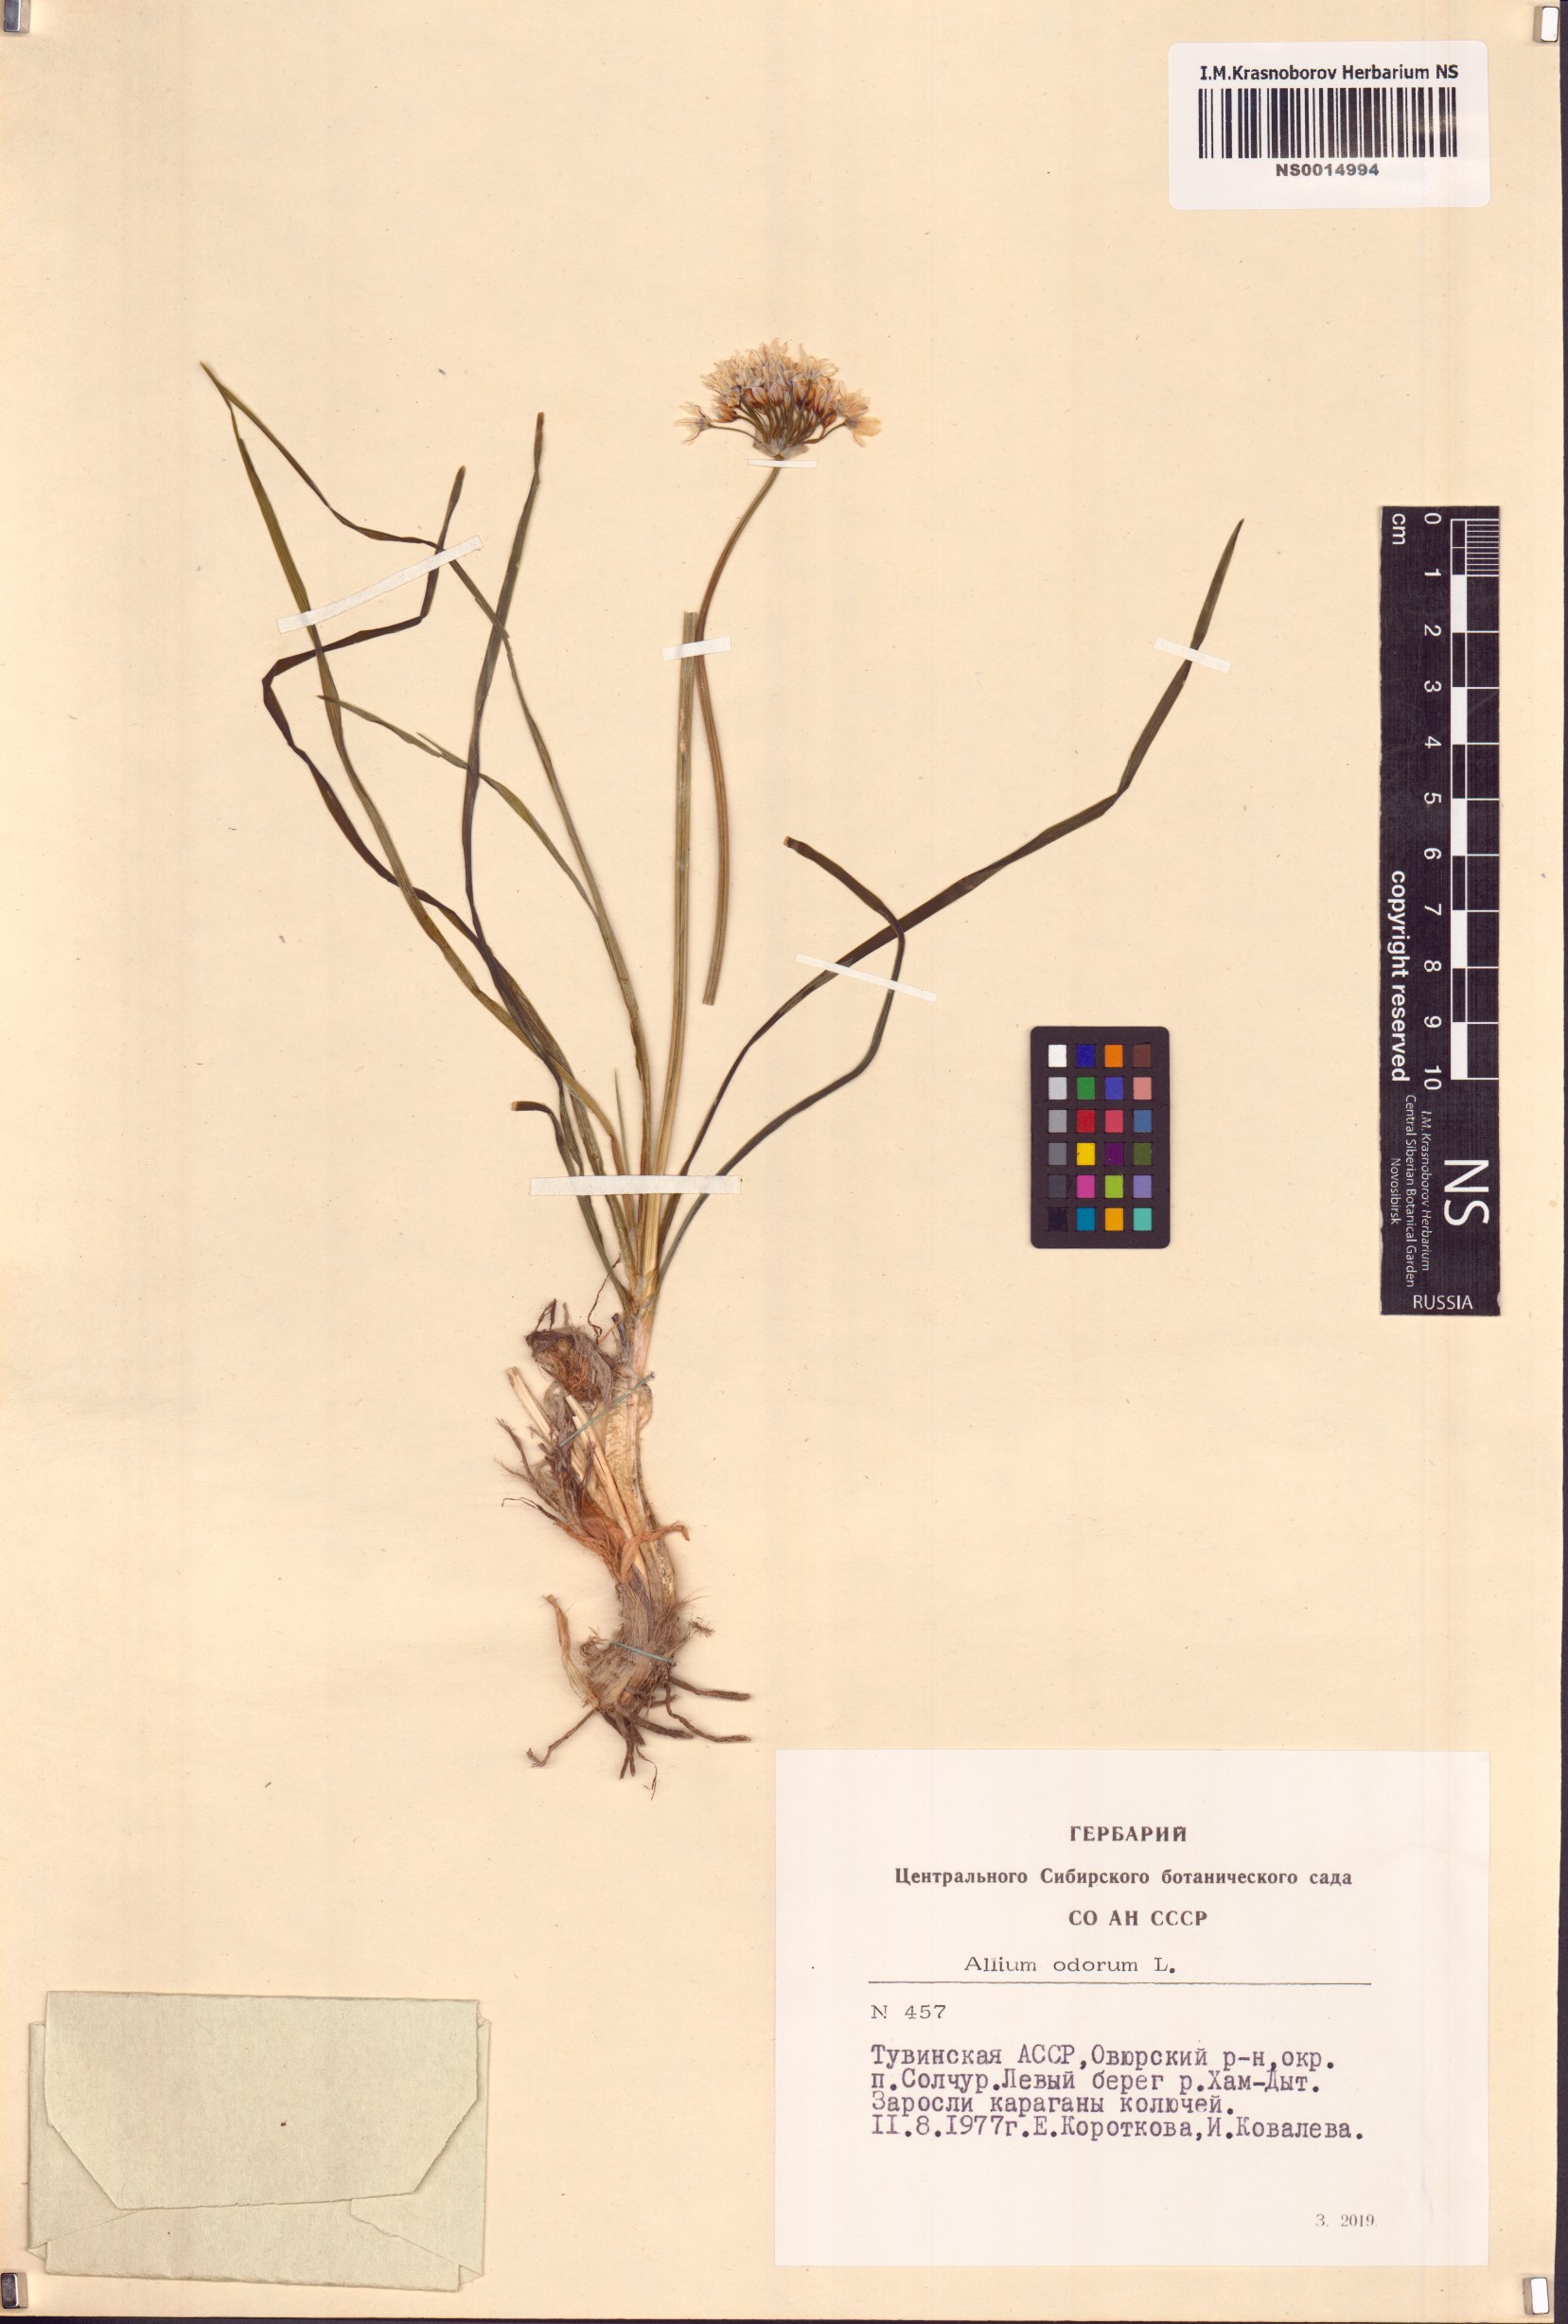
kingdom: Plantae
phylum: Tracheophyta
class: Liliopsida
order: Asparagales
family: Amaryllidaceae
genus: Allium
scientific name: Allium ramosum
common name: Fragrant garlic
